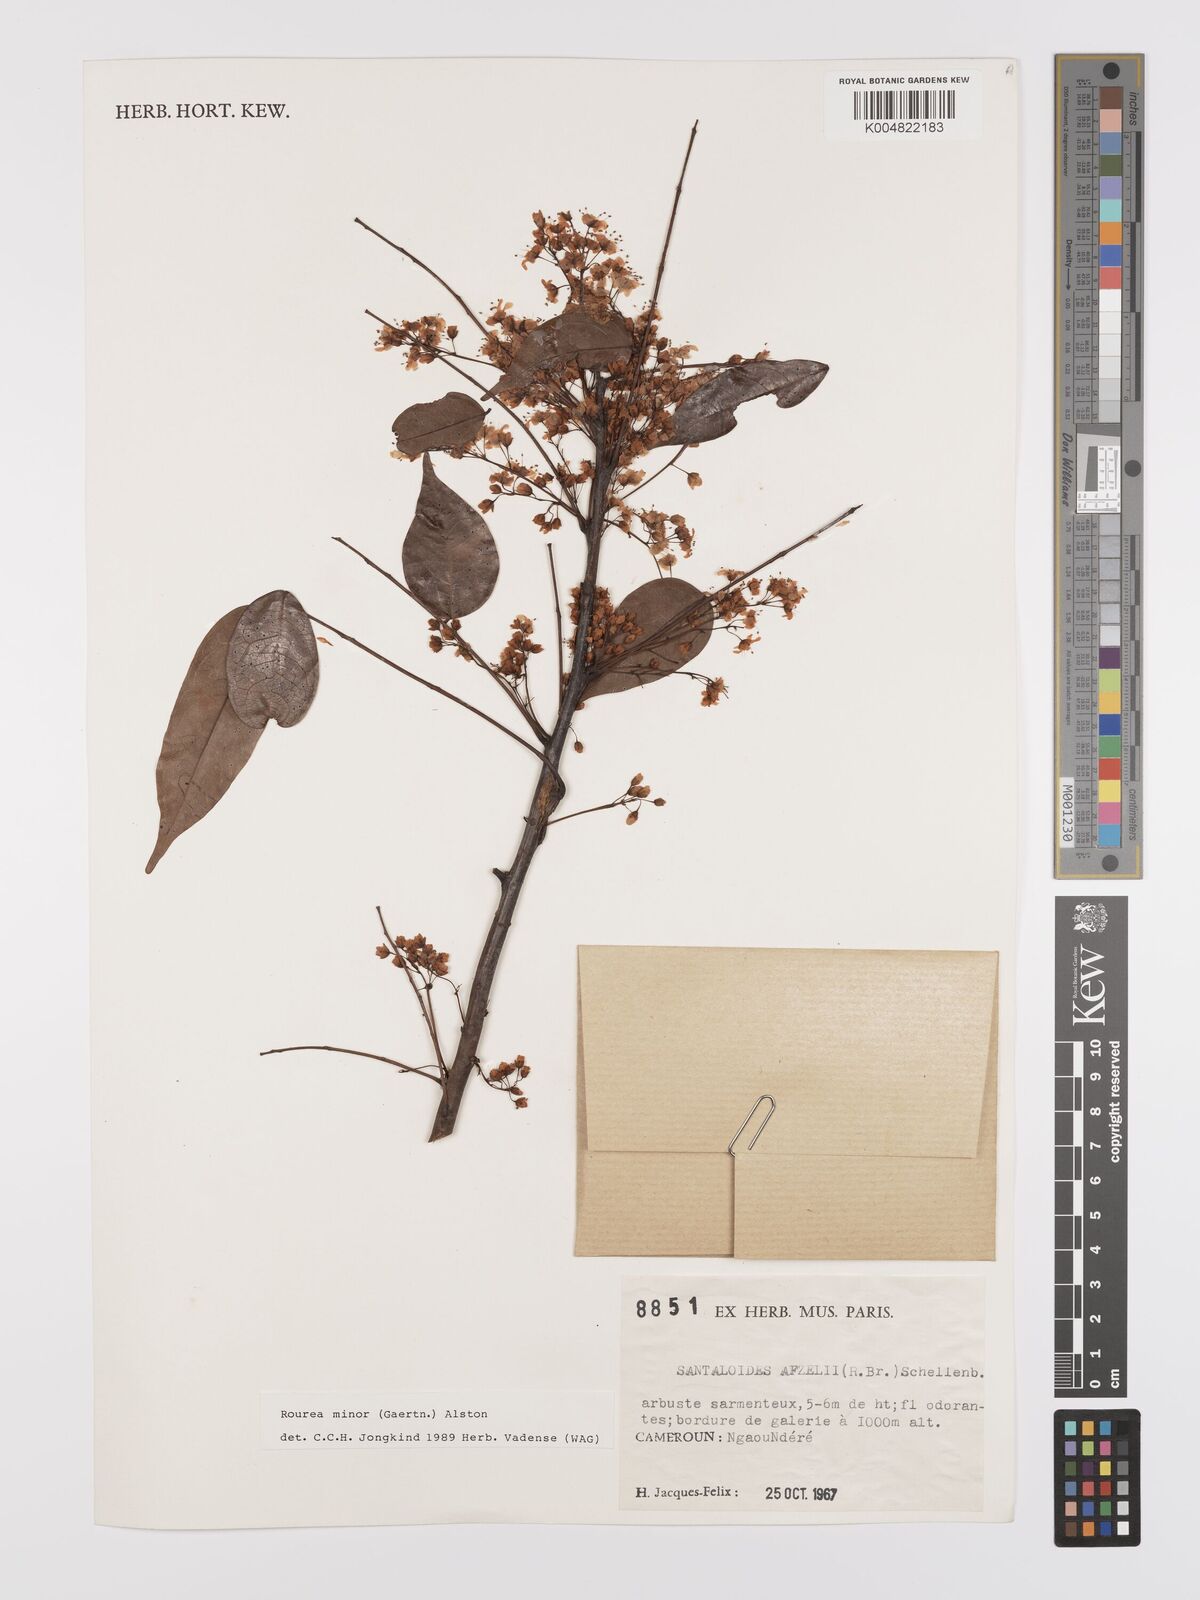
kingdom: Plantae
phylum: Tracheophyta
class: Magnoliopsida
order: Oxalidales
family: Connaraceae
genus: Rourea
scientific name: Rourea minor
